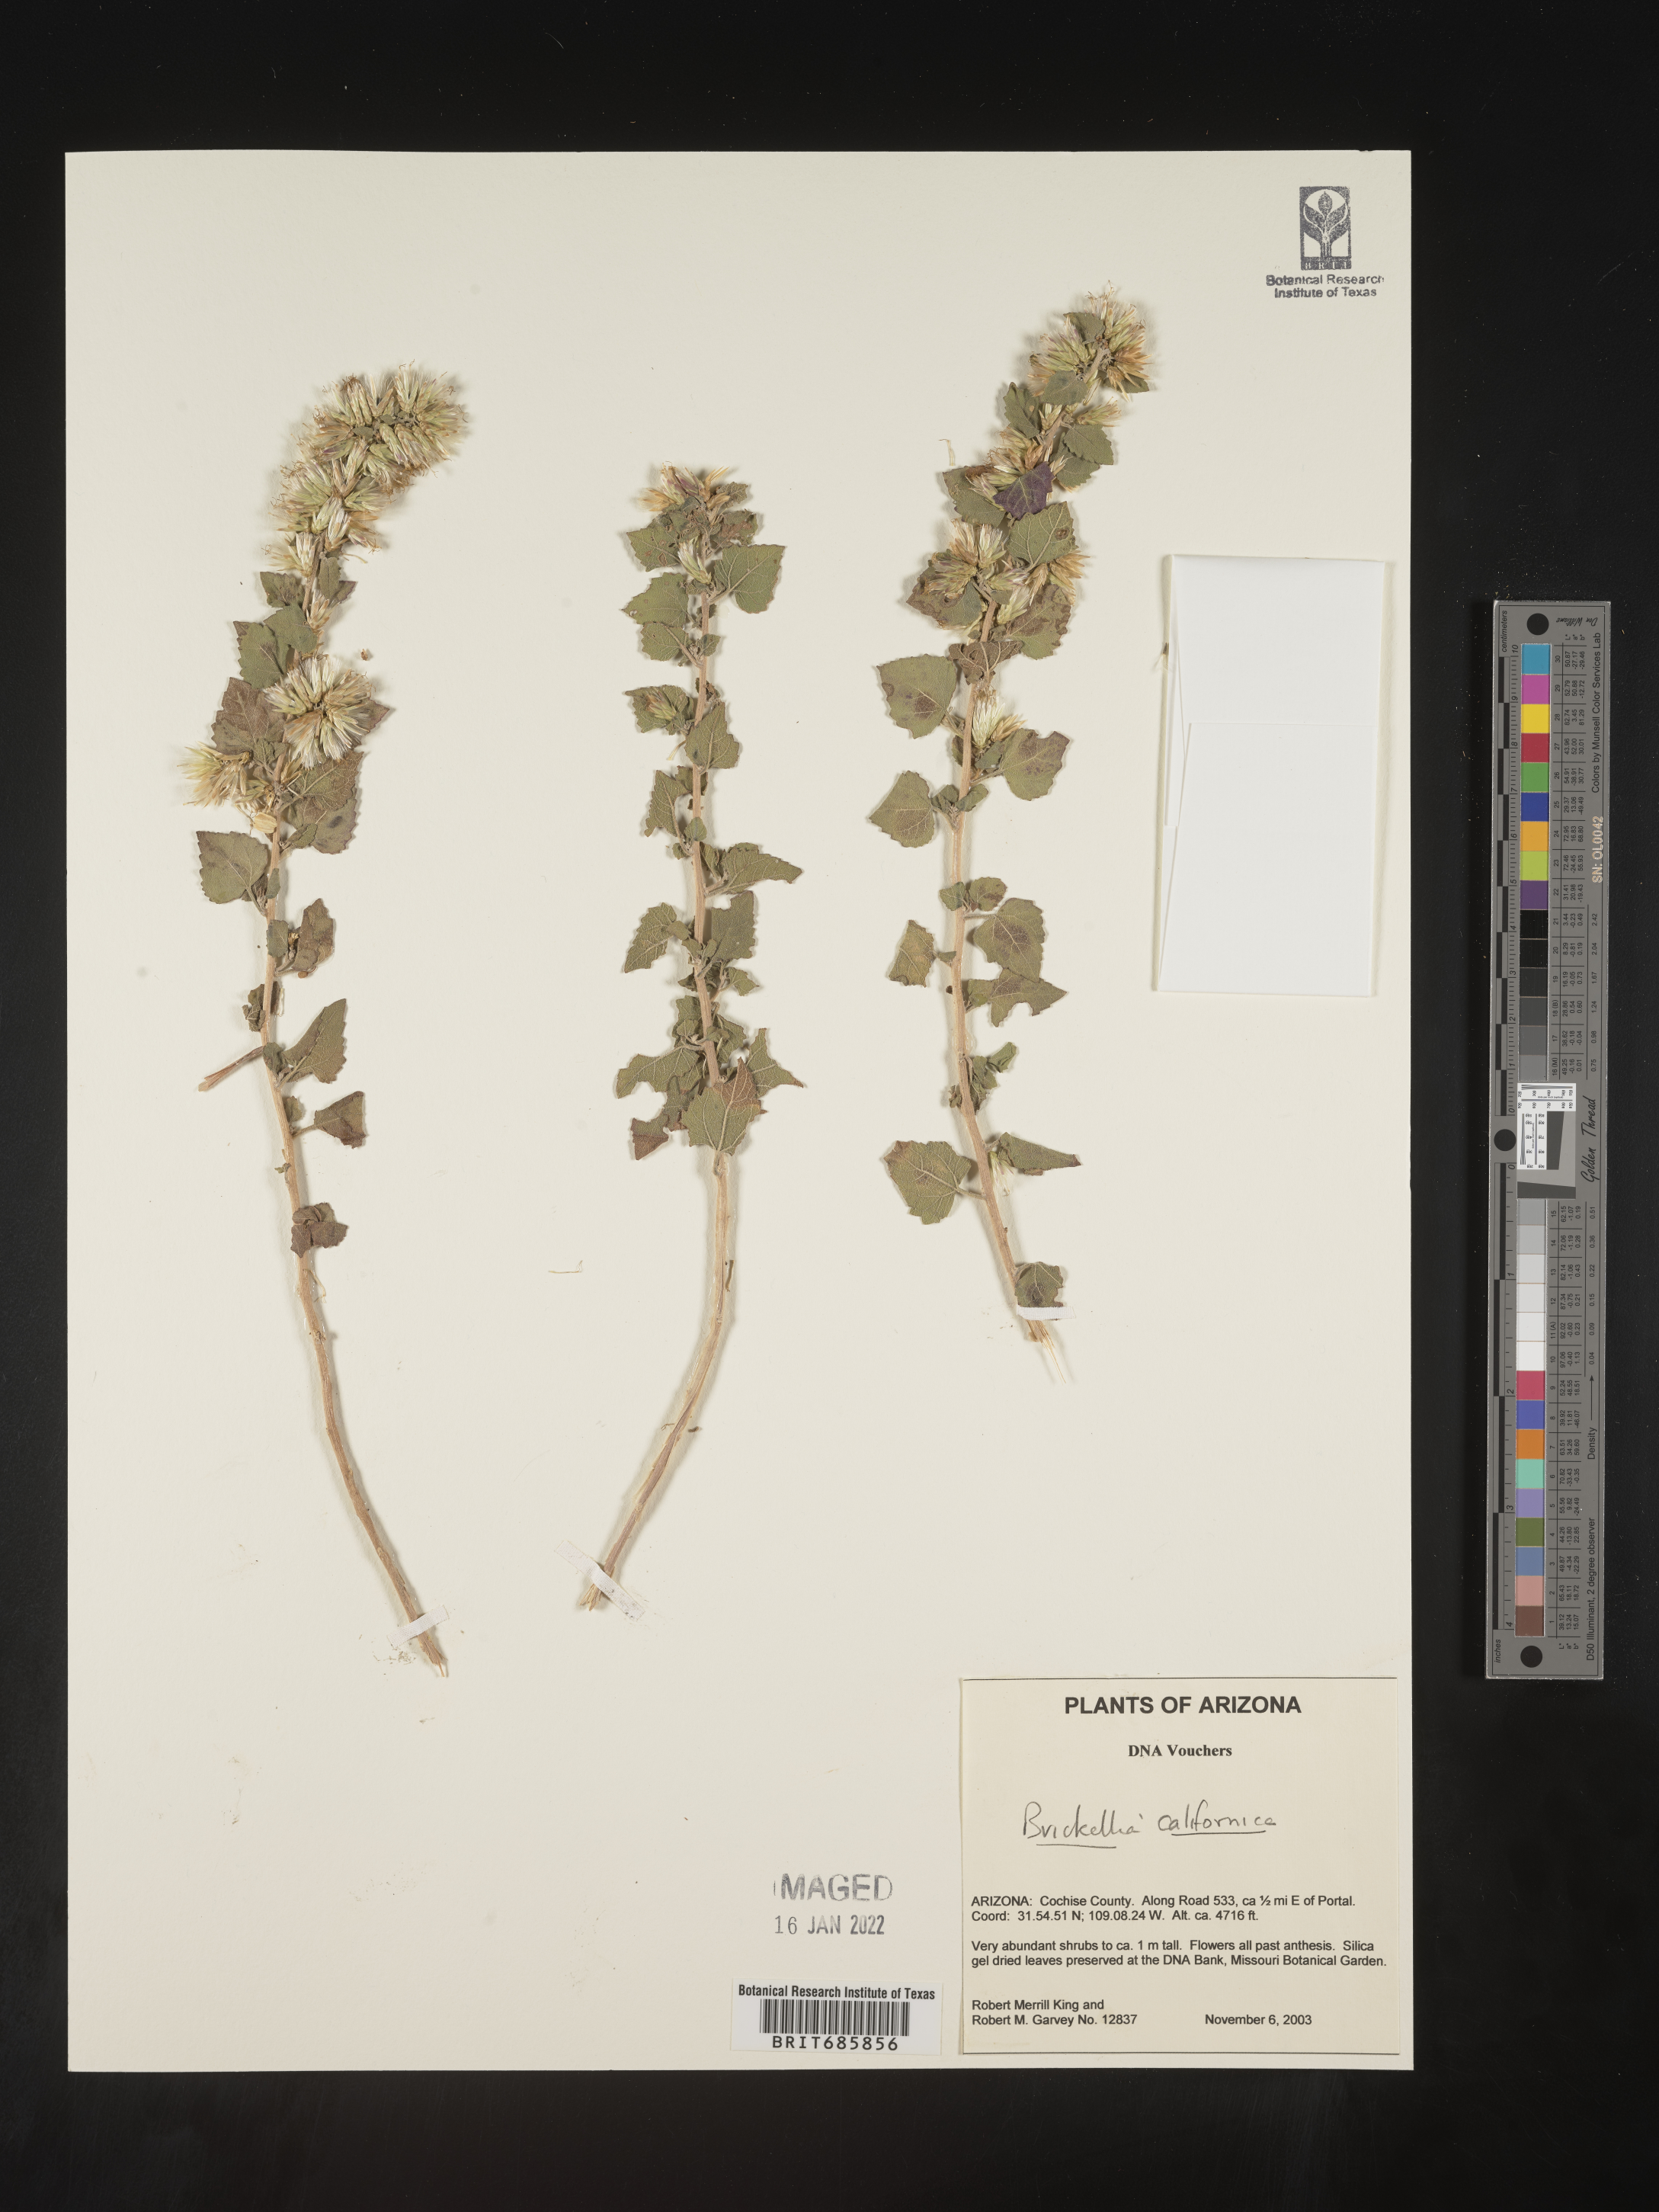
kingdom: Plantae
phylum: Tracheophyta
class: Magnoliopsida
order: Asterales
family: Asteraceae
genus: Brickellia
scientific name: Brickellia californica
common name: California brickellbush
